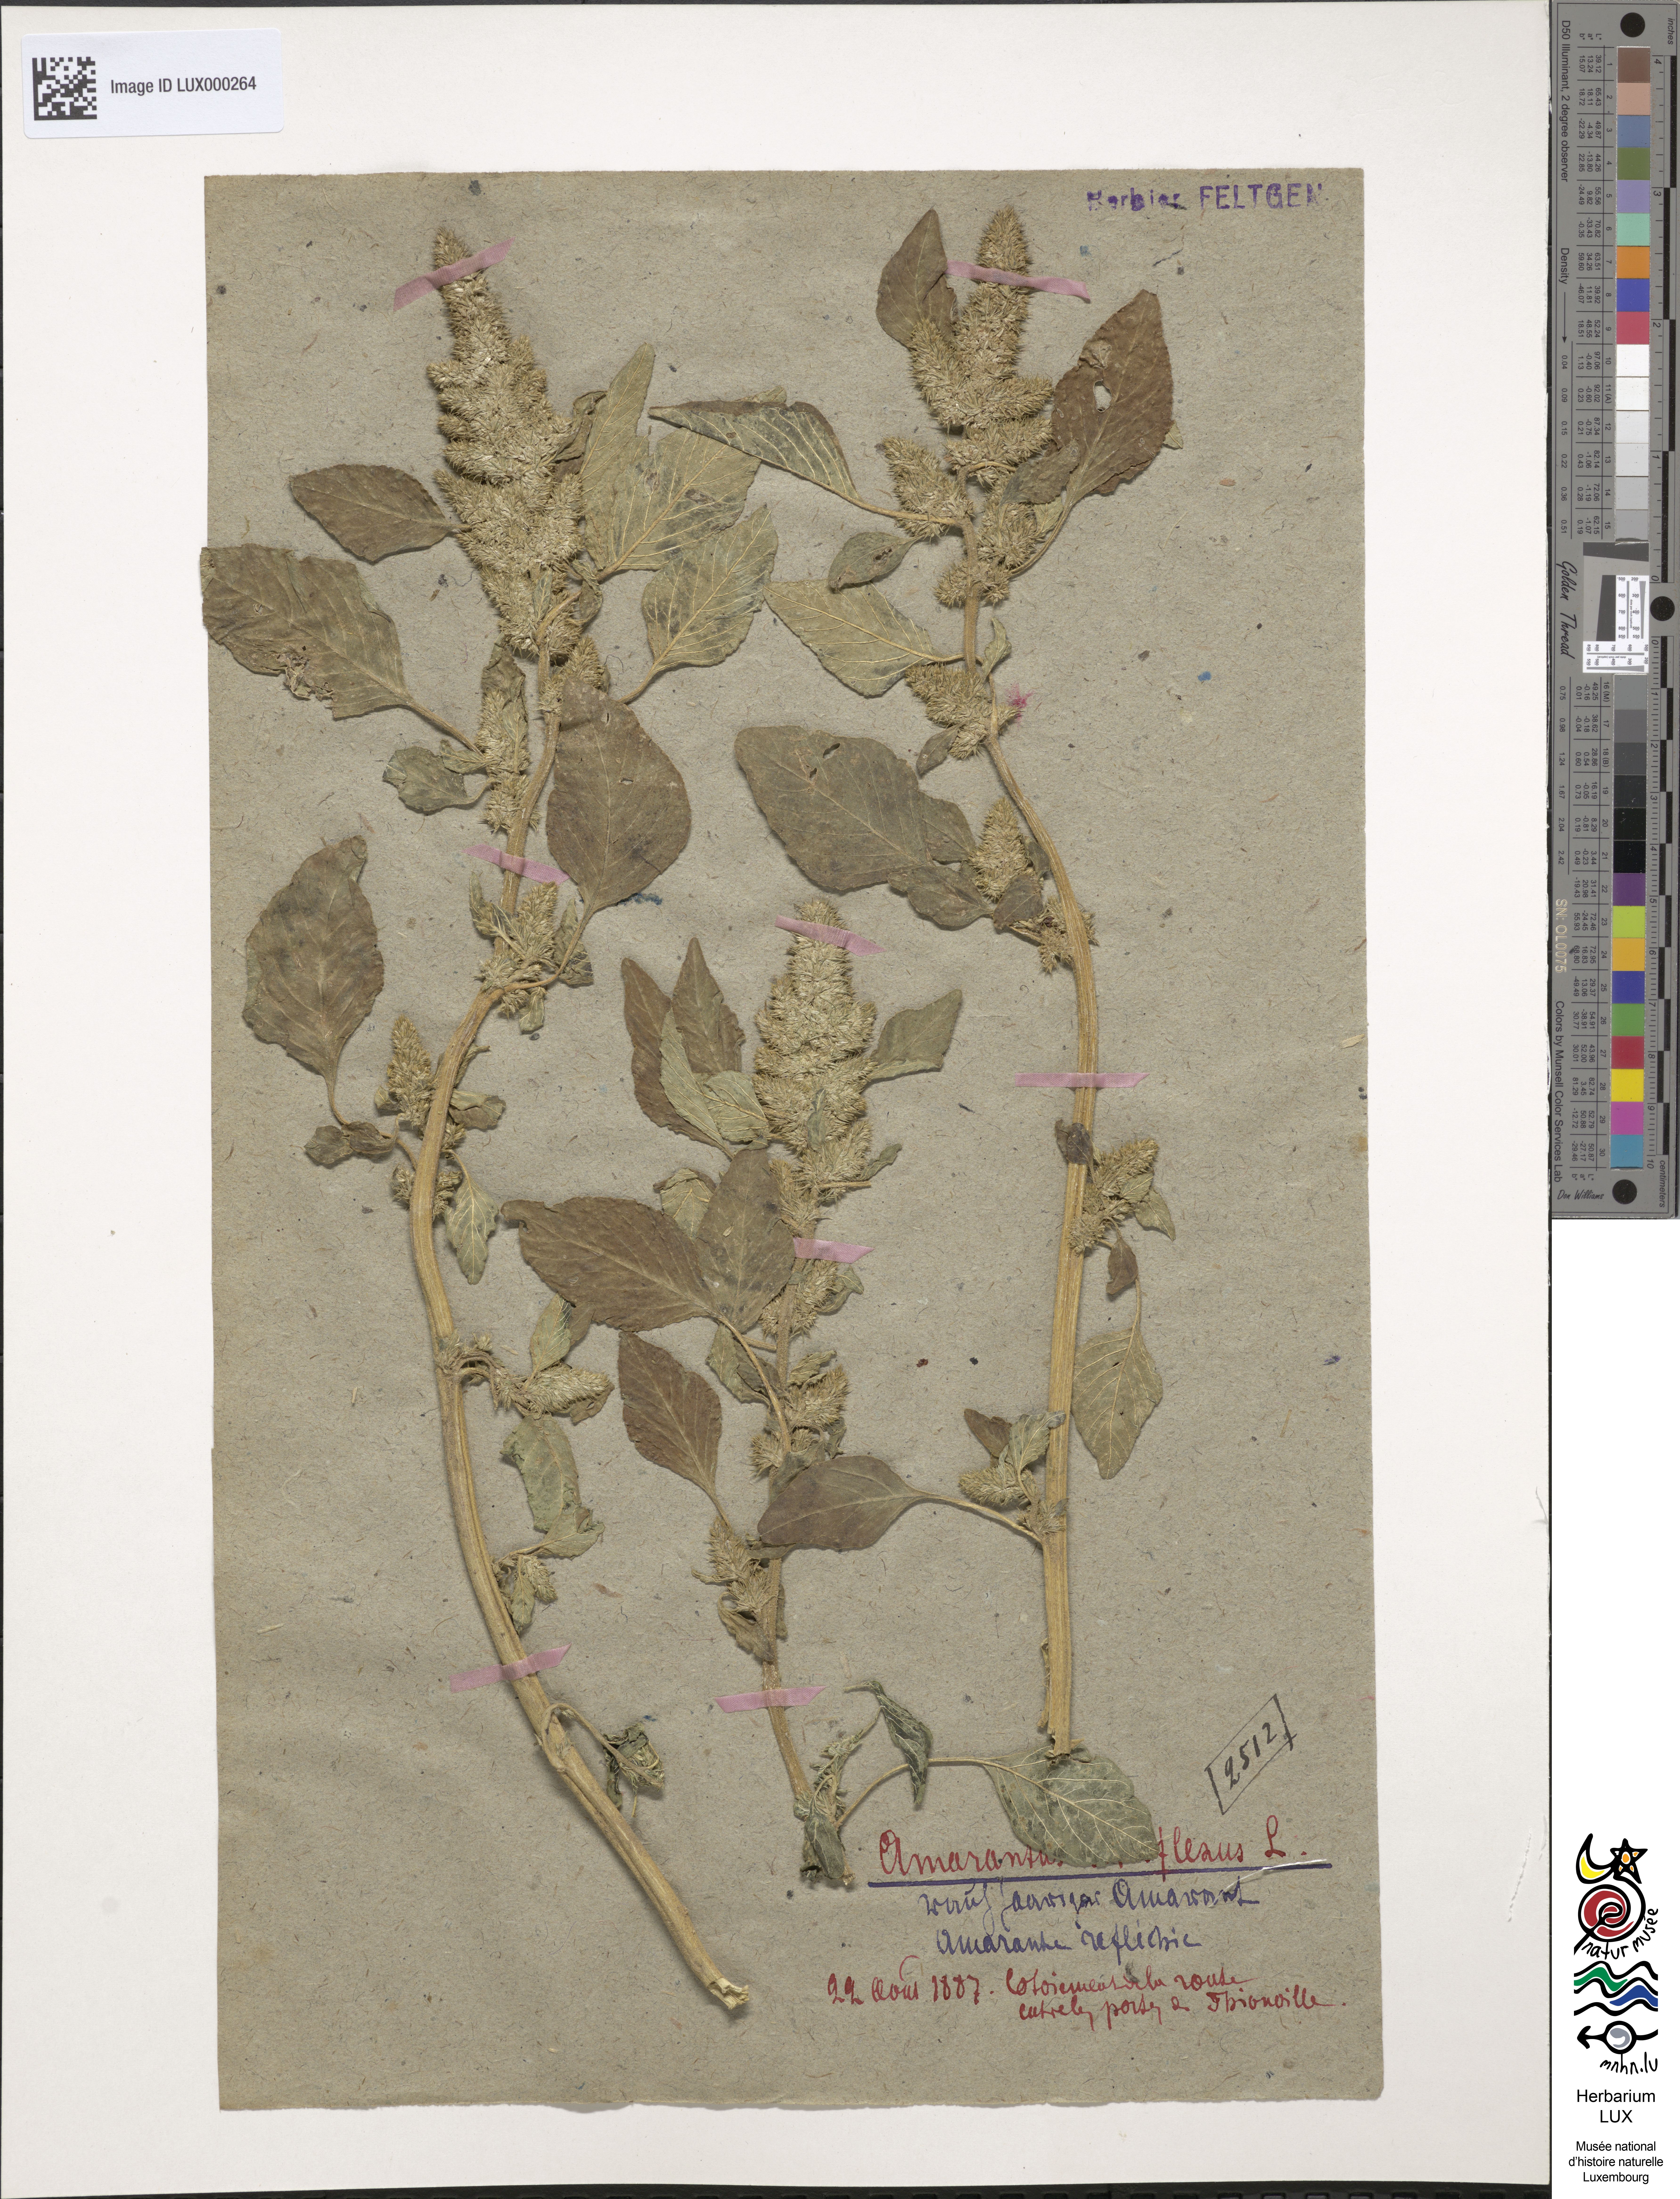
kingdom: Plantae
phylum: Tracheophyta
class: Magnoliopsida
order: Caryophyllales
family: Amaranthaceae
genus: Amaranthus
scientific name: Amaranthus retroflexus
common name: Redroot amaranth
